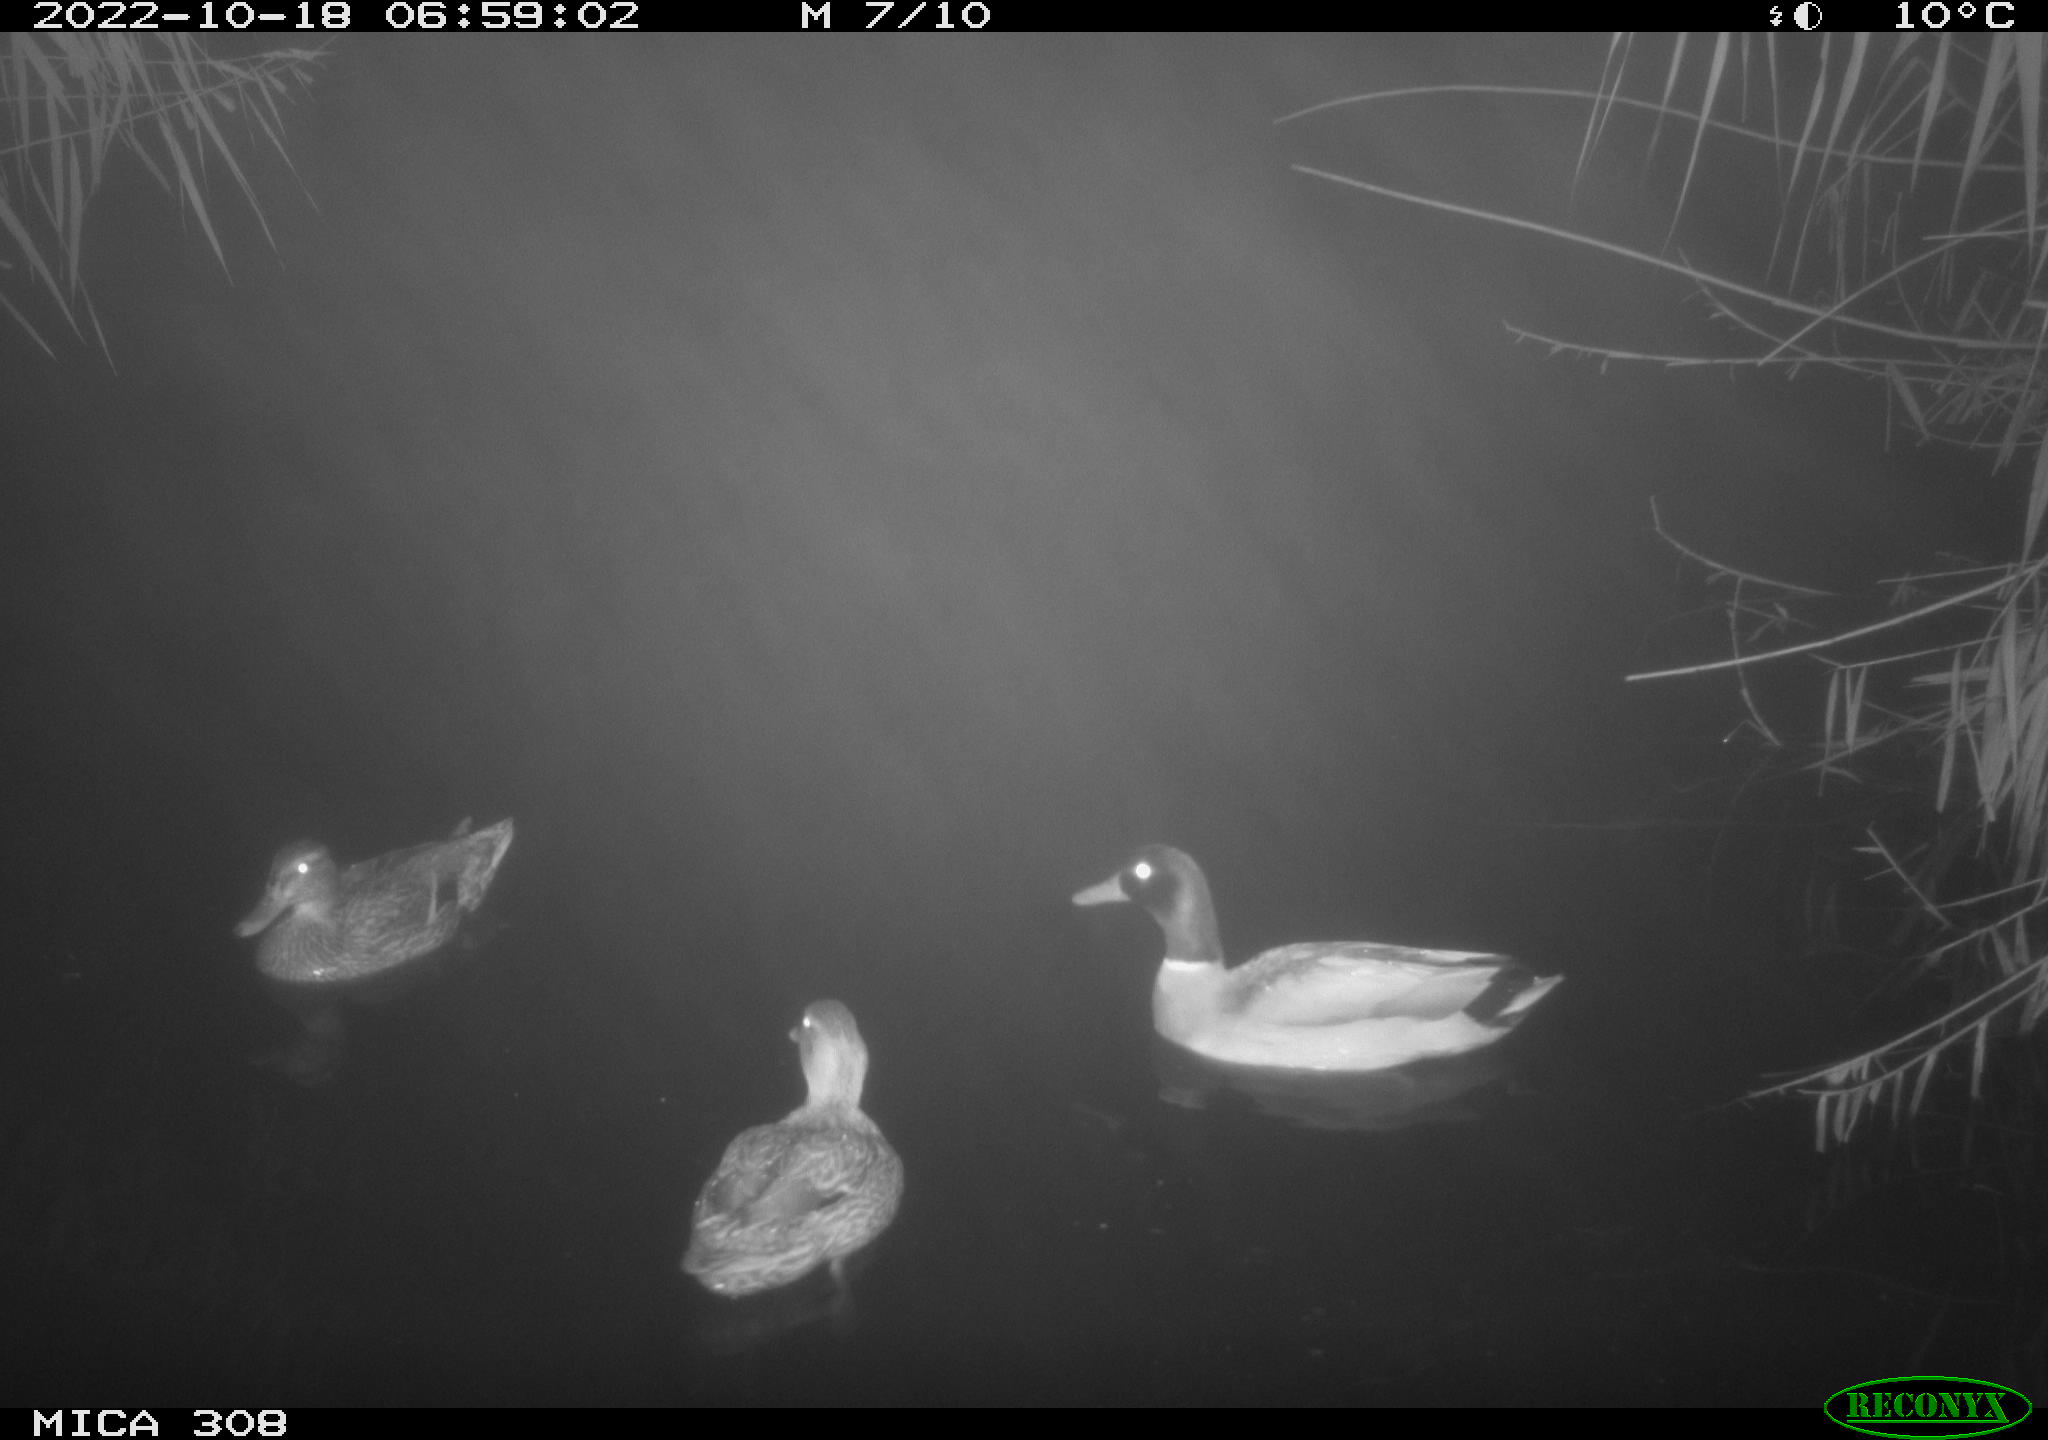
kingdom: Animalia
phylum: Chordata
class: Aves
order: Anseriformes
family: Anatidae
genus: Anas
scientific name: Anas
